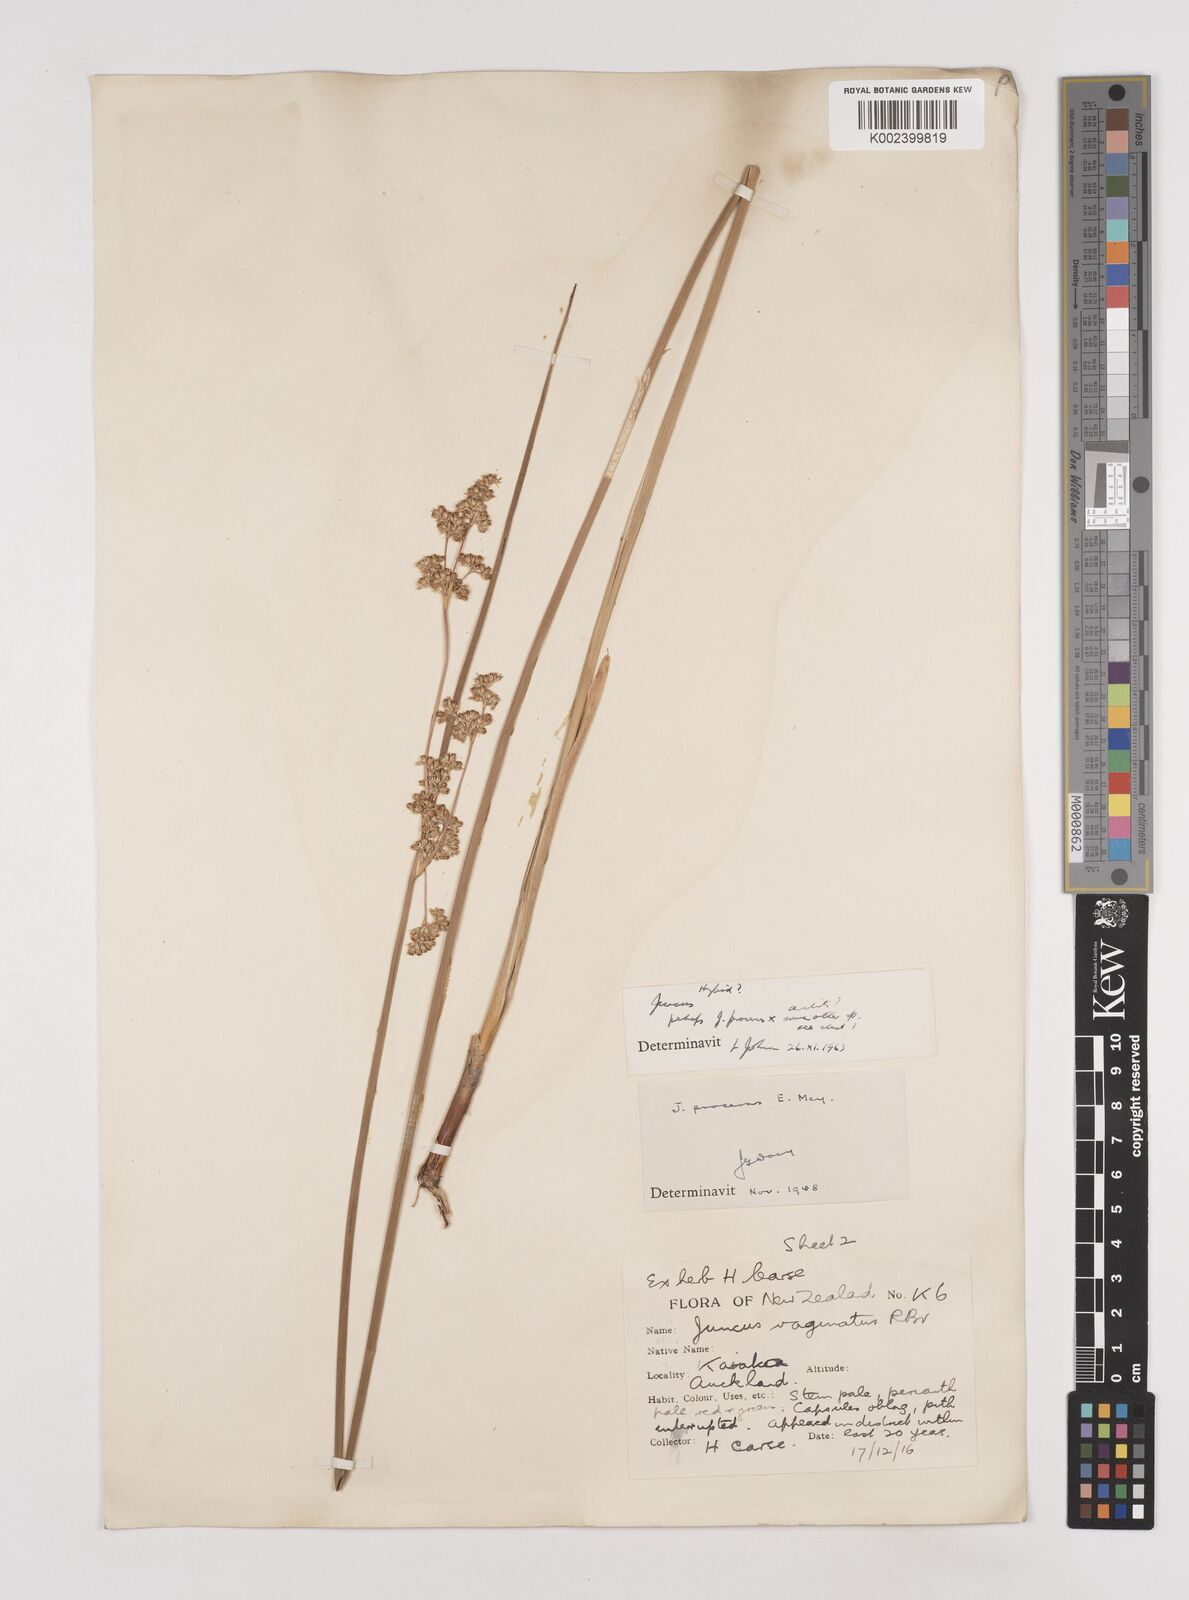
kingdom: Plantae
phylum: Tracheophyta
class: Liliopsida
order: Poales
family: Juncaceae
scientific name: Juncaceae
